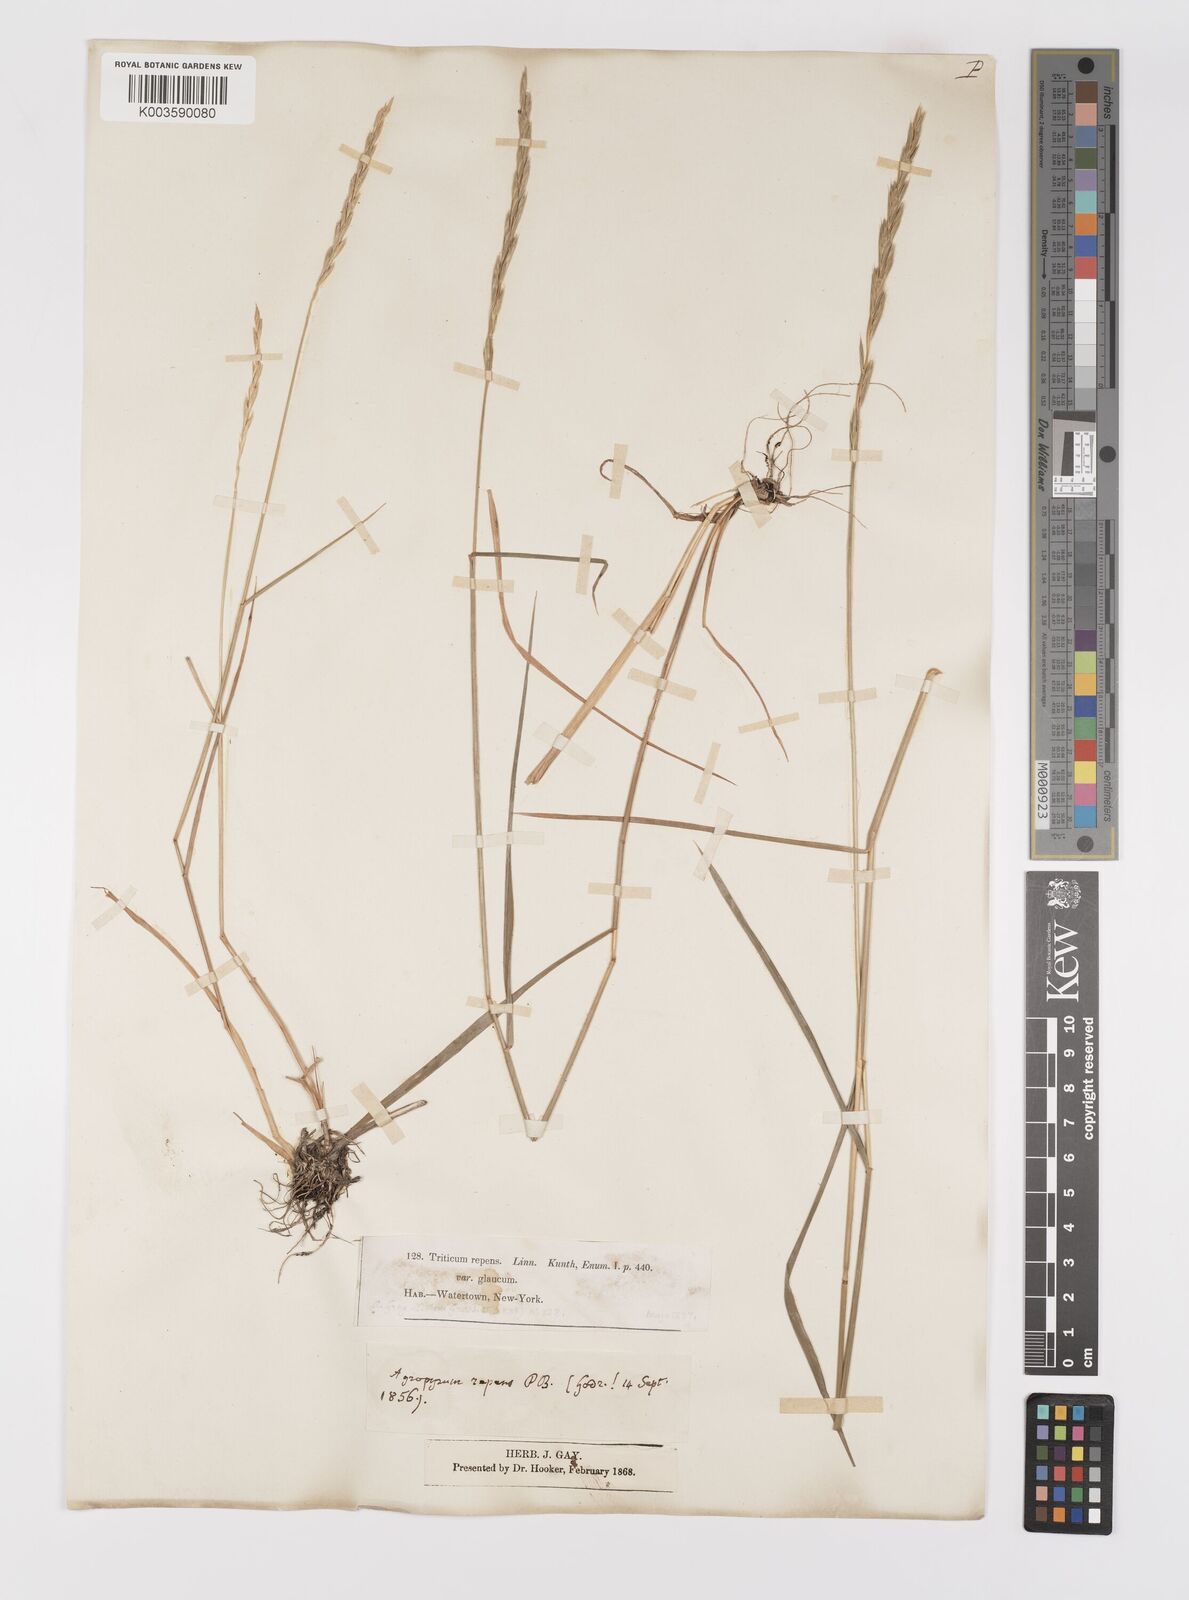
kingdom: Plantae
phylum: Tracheophyta
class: Liliopsida
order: Poales
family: Poaceae
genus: Elymus
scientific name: Elymus repens
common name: Quackgrass
